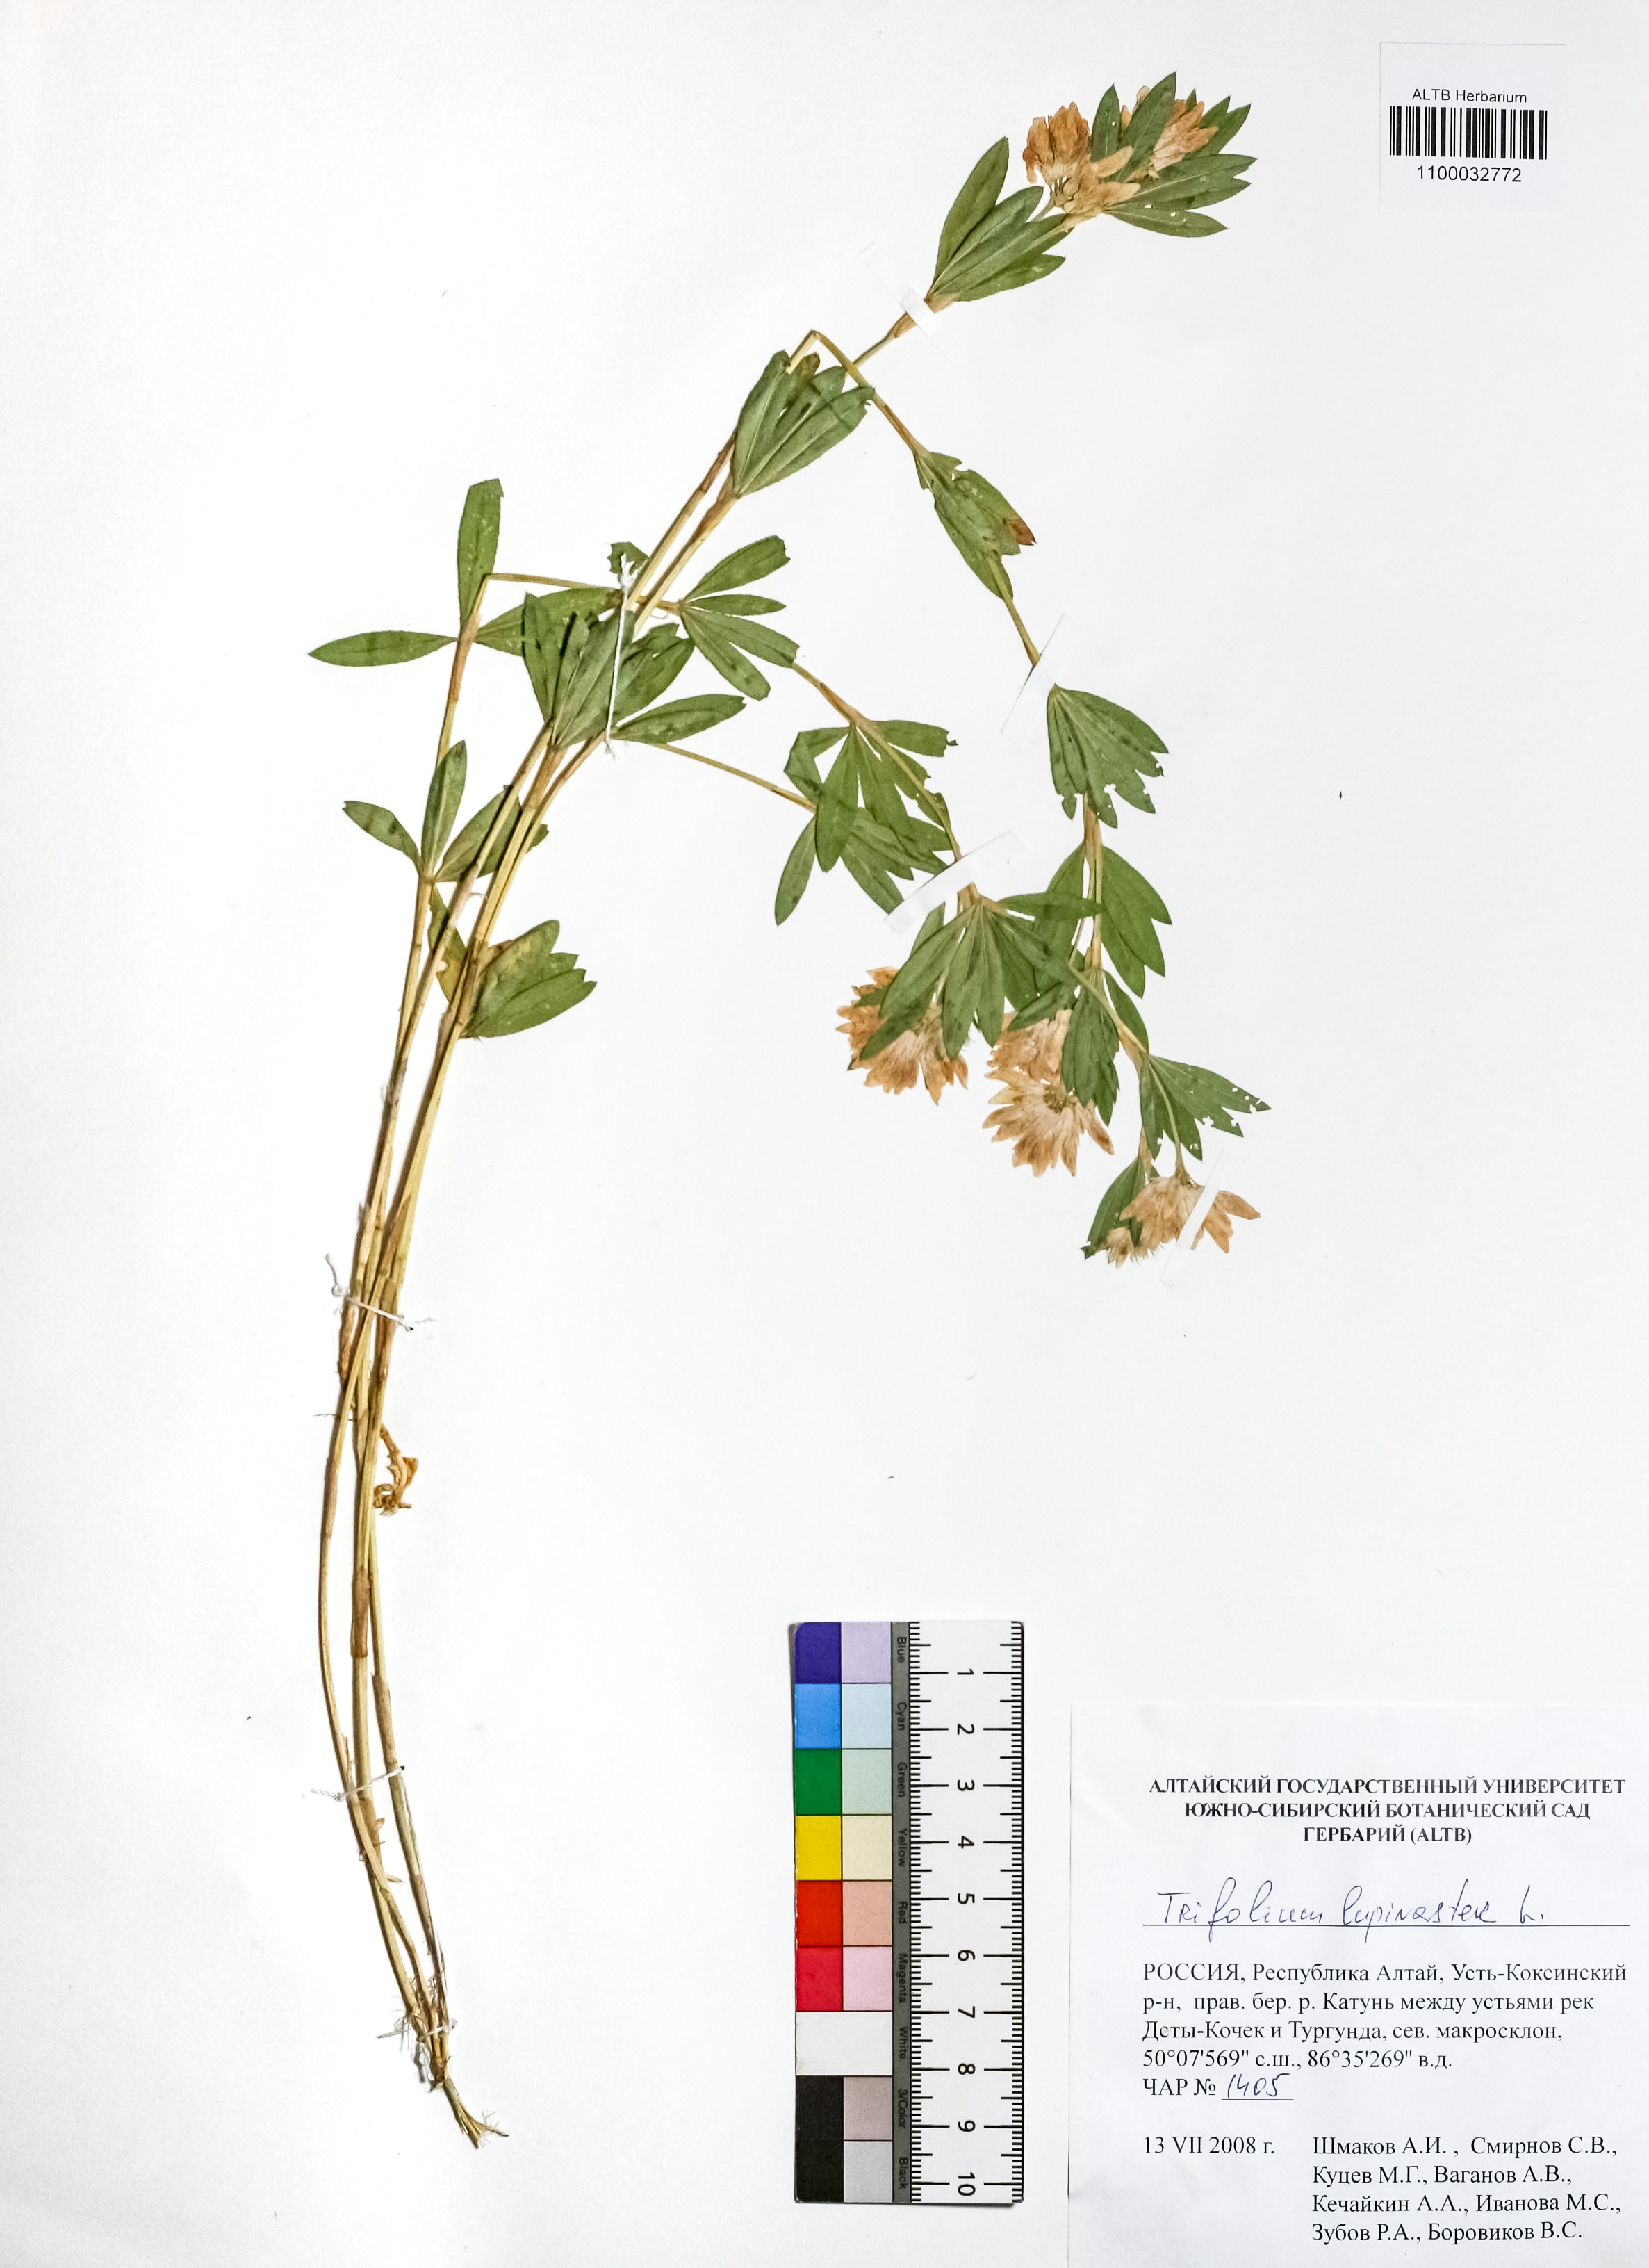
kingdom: Plantae
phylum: Tracheophyta
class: Magnoliopsida
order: Fabales
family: Fabaceae
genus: Trifolium
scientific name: Trifolium lupinaster
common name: Lupine clover
